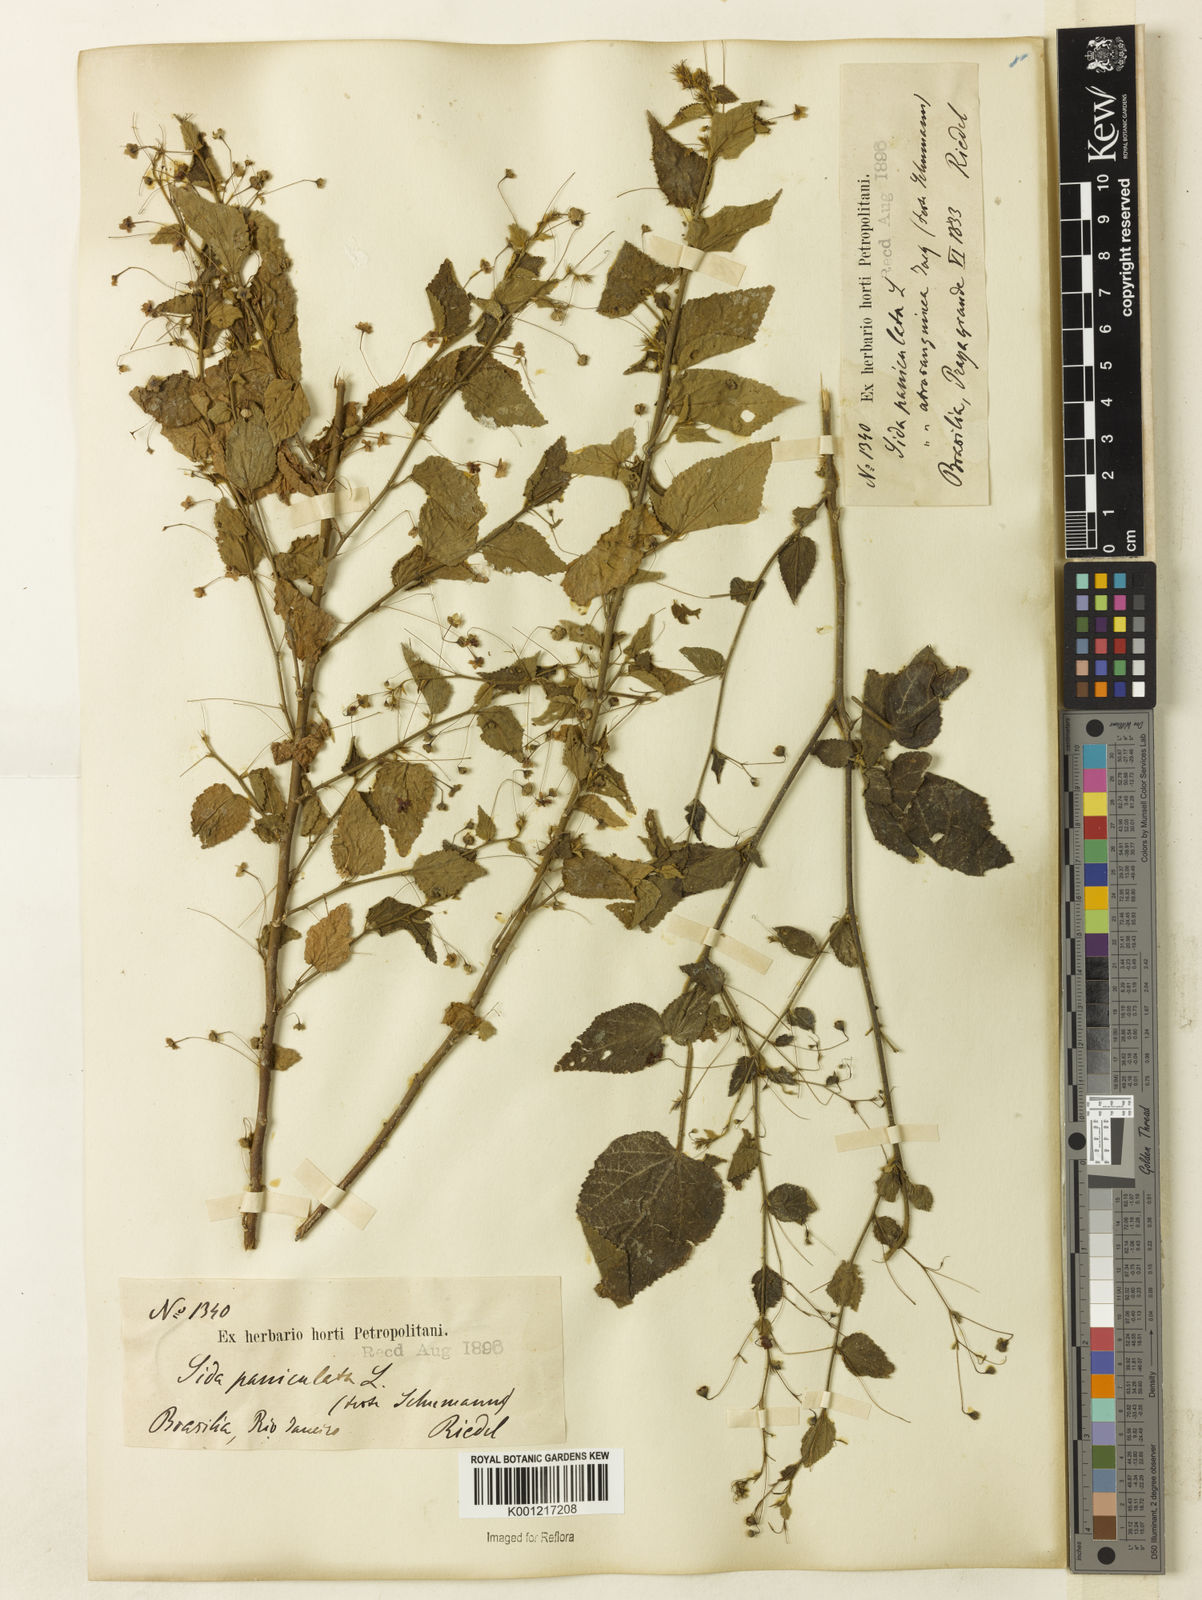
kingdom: Plantae
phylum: Tracheophyta
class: Magnoliopsida
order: Malvales
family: Malvaceae
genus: Sidastrum
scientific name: Sidastrum paniculatum
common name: Panicled sandmallow
